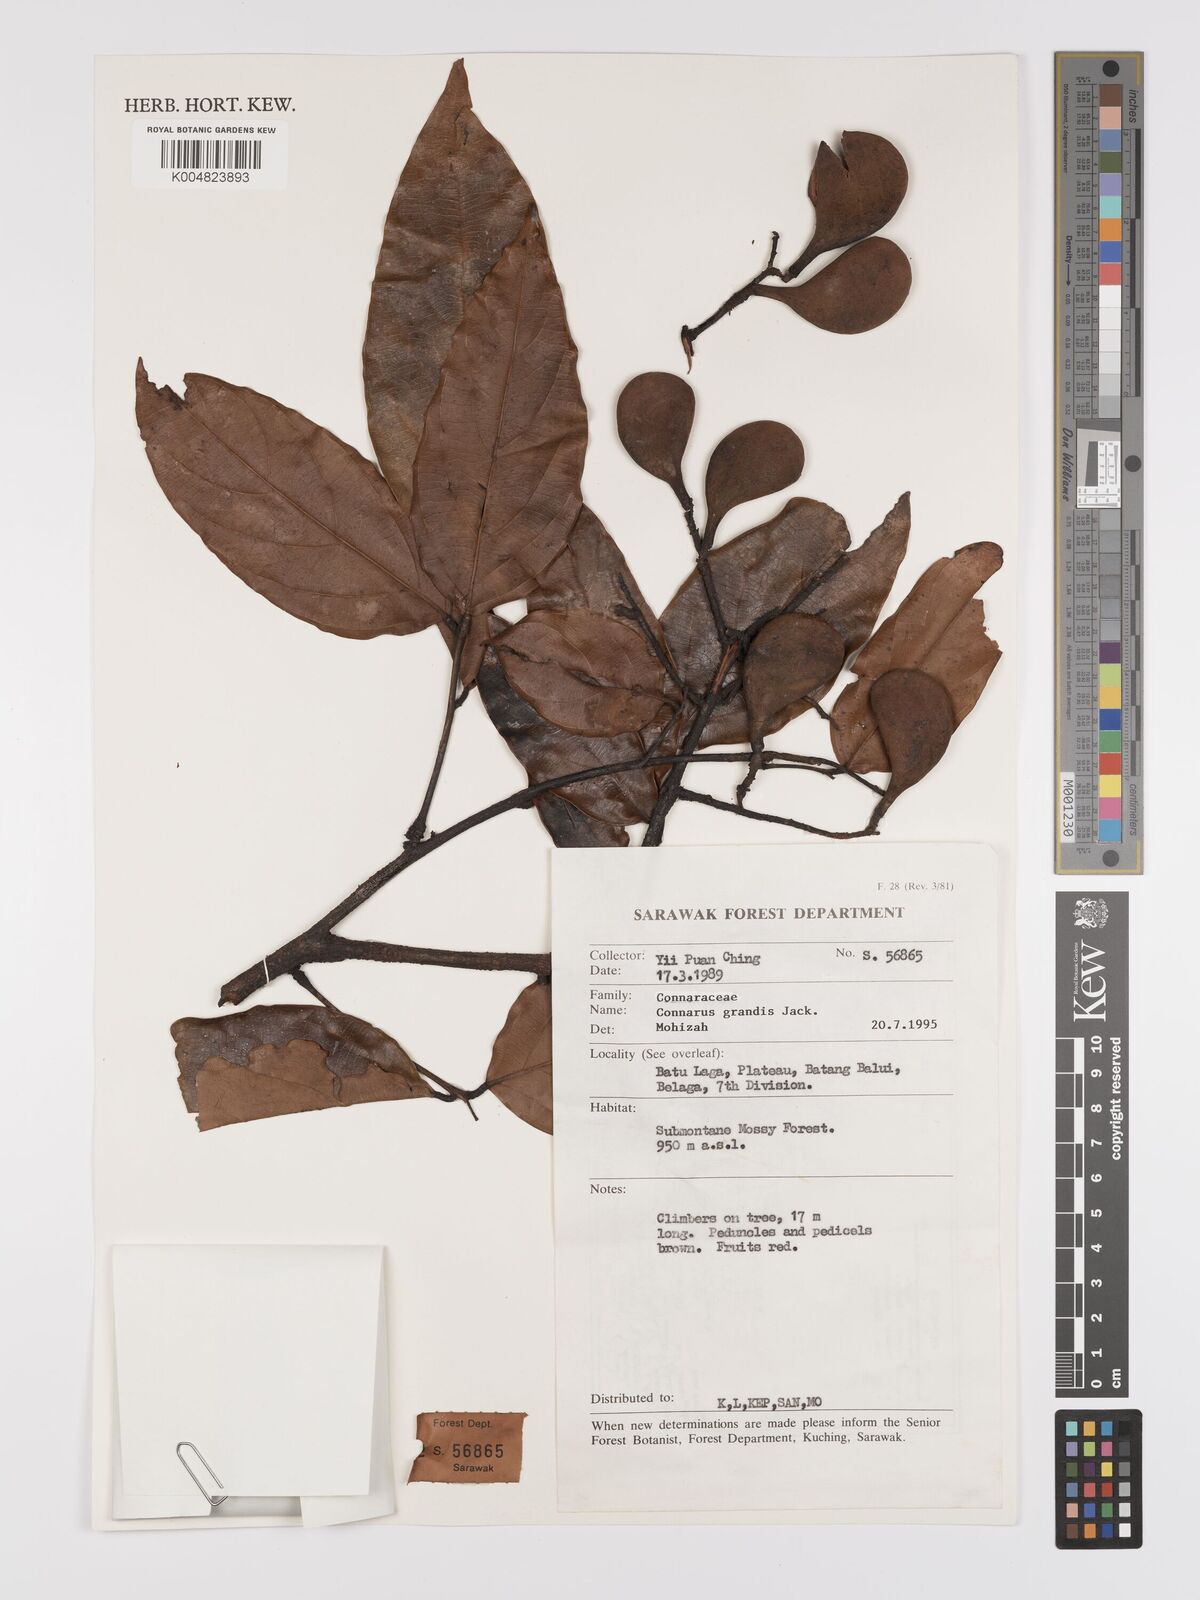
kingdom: Plantae
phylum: Tracheophyta
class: Magnoliopsida
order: Oxalidales
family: Connaraceae
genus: Connarus
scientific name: Connarus grandis
